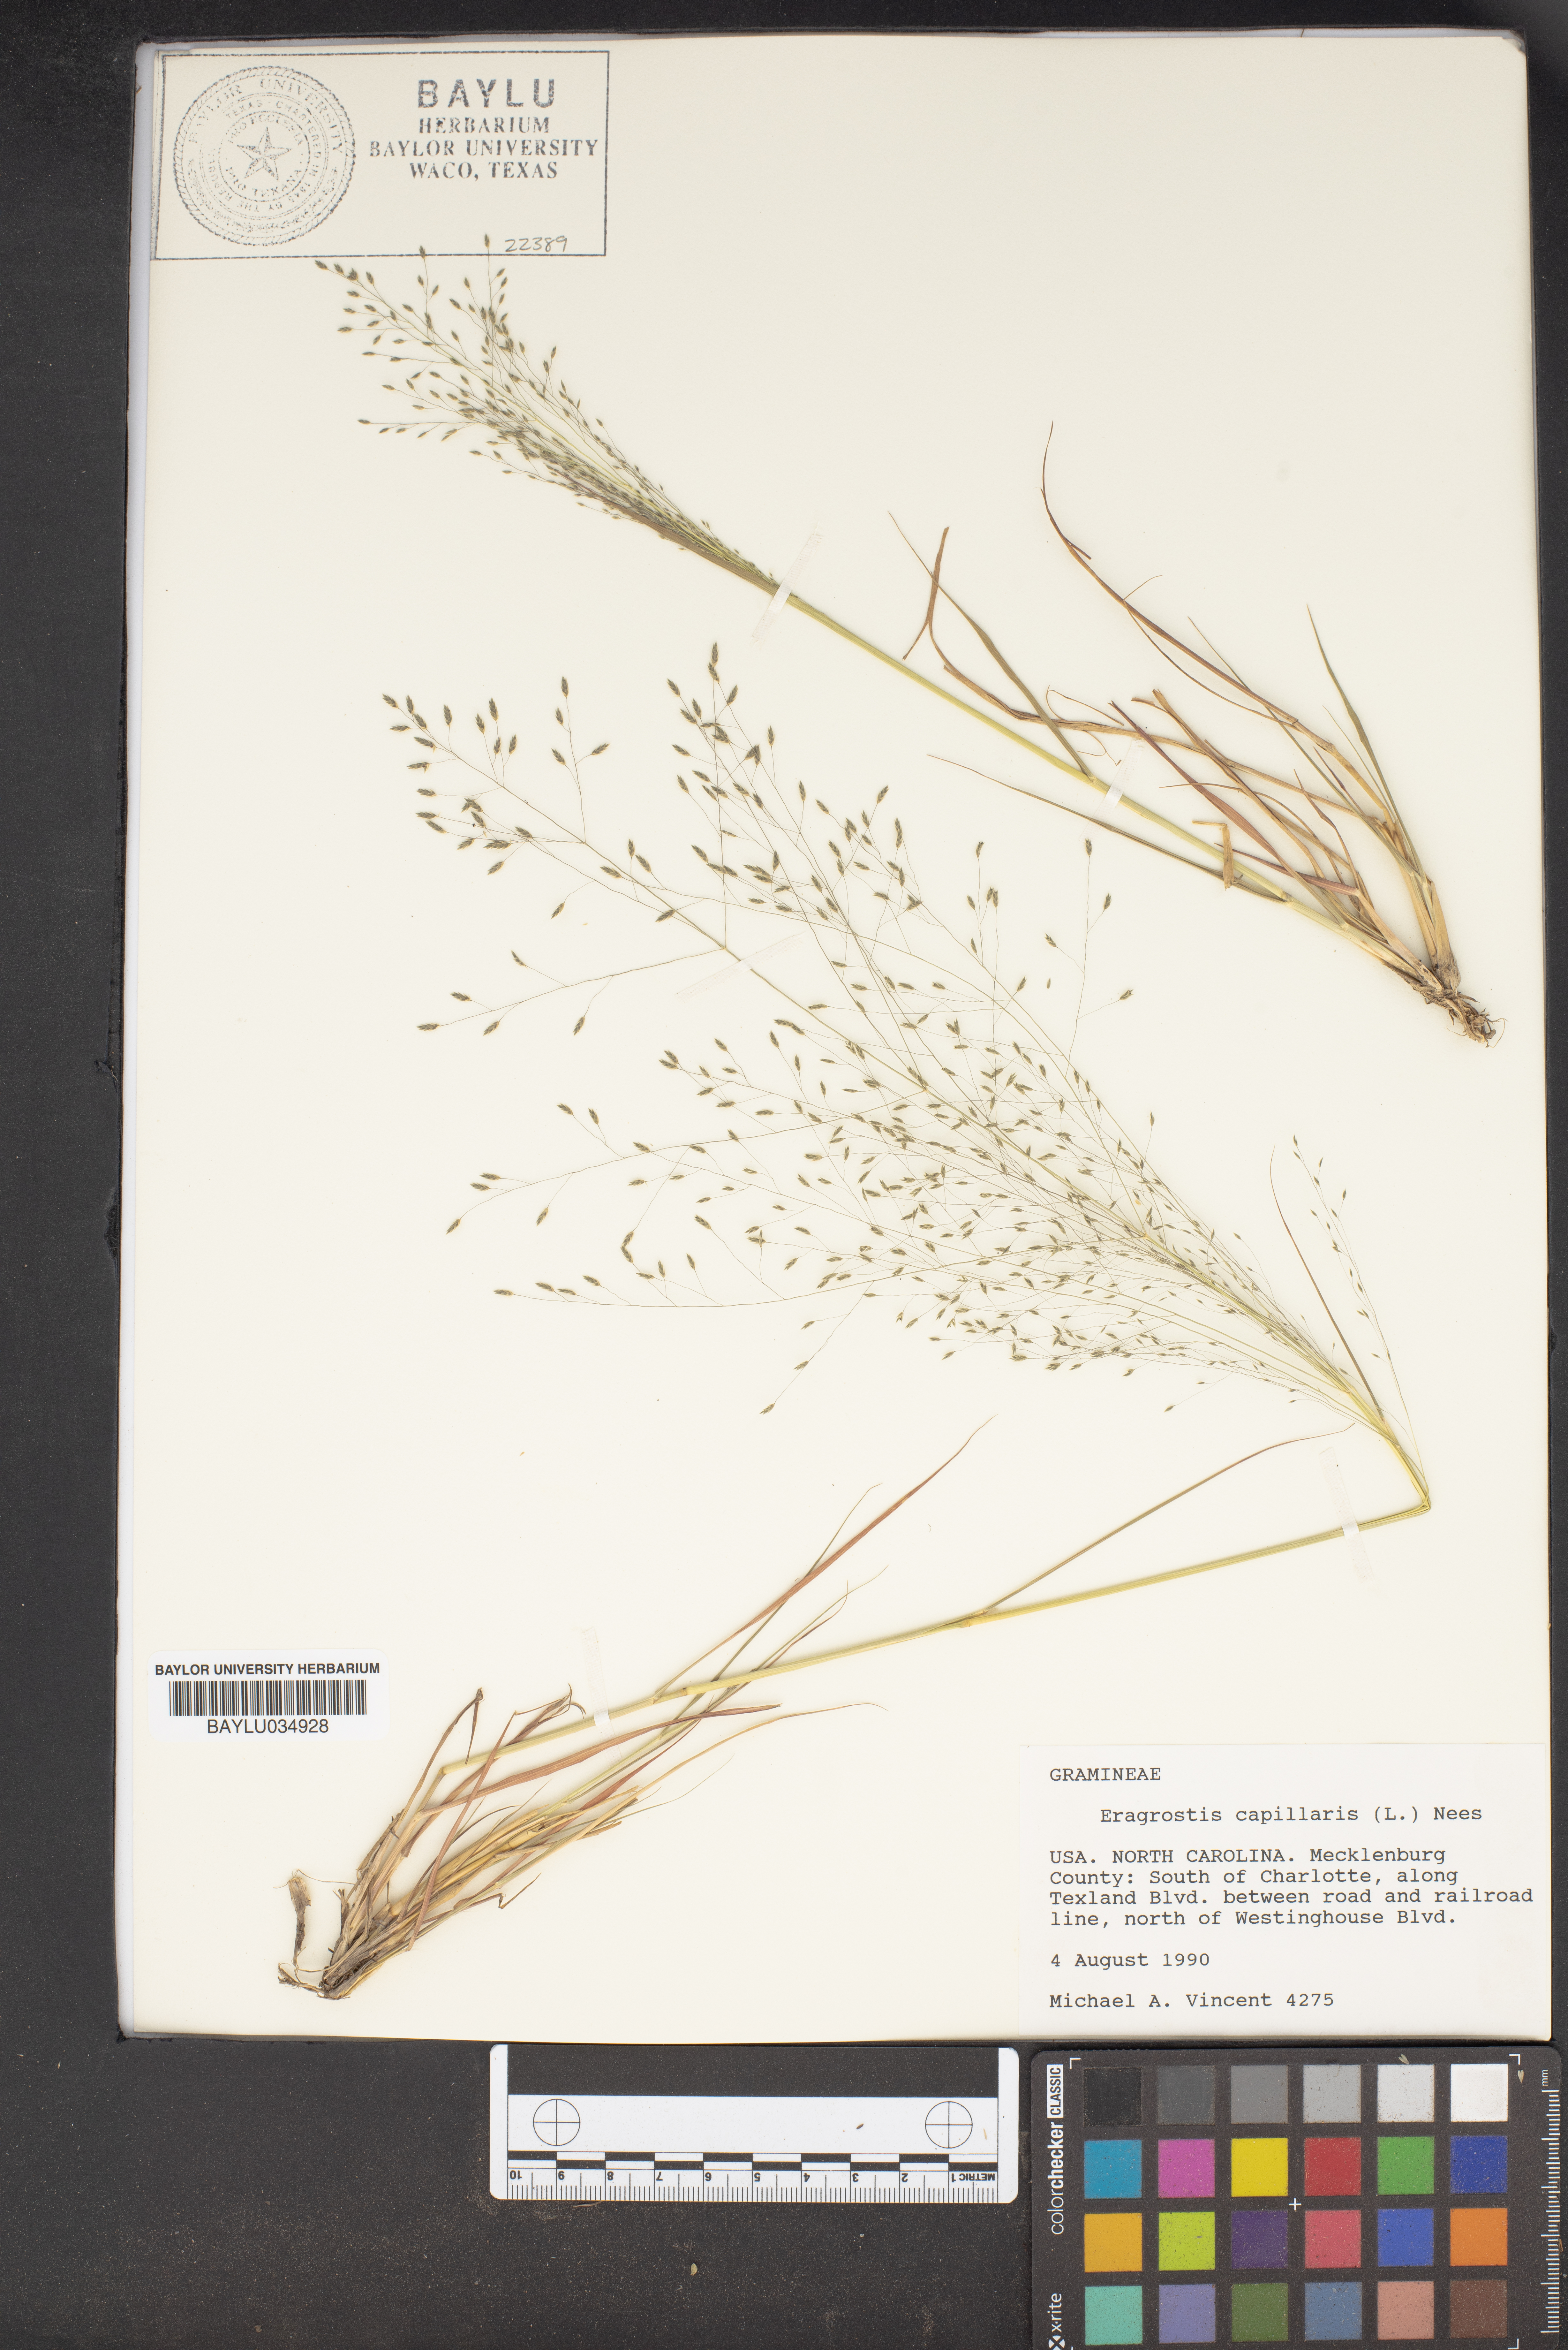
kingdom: Plantae
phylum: Tracheophyta
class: Liliopsida
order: Poales
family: Poaceae
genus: Eragrostis
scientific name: Eragrostis capillaris
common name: Hair-like lovegrass
